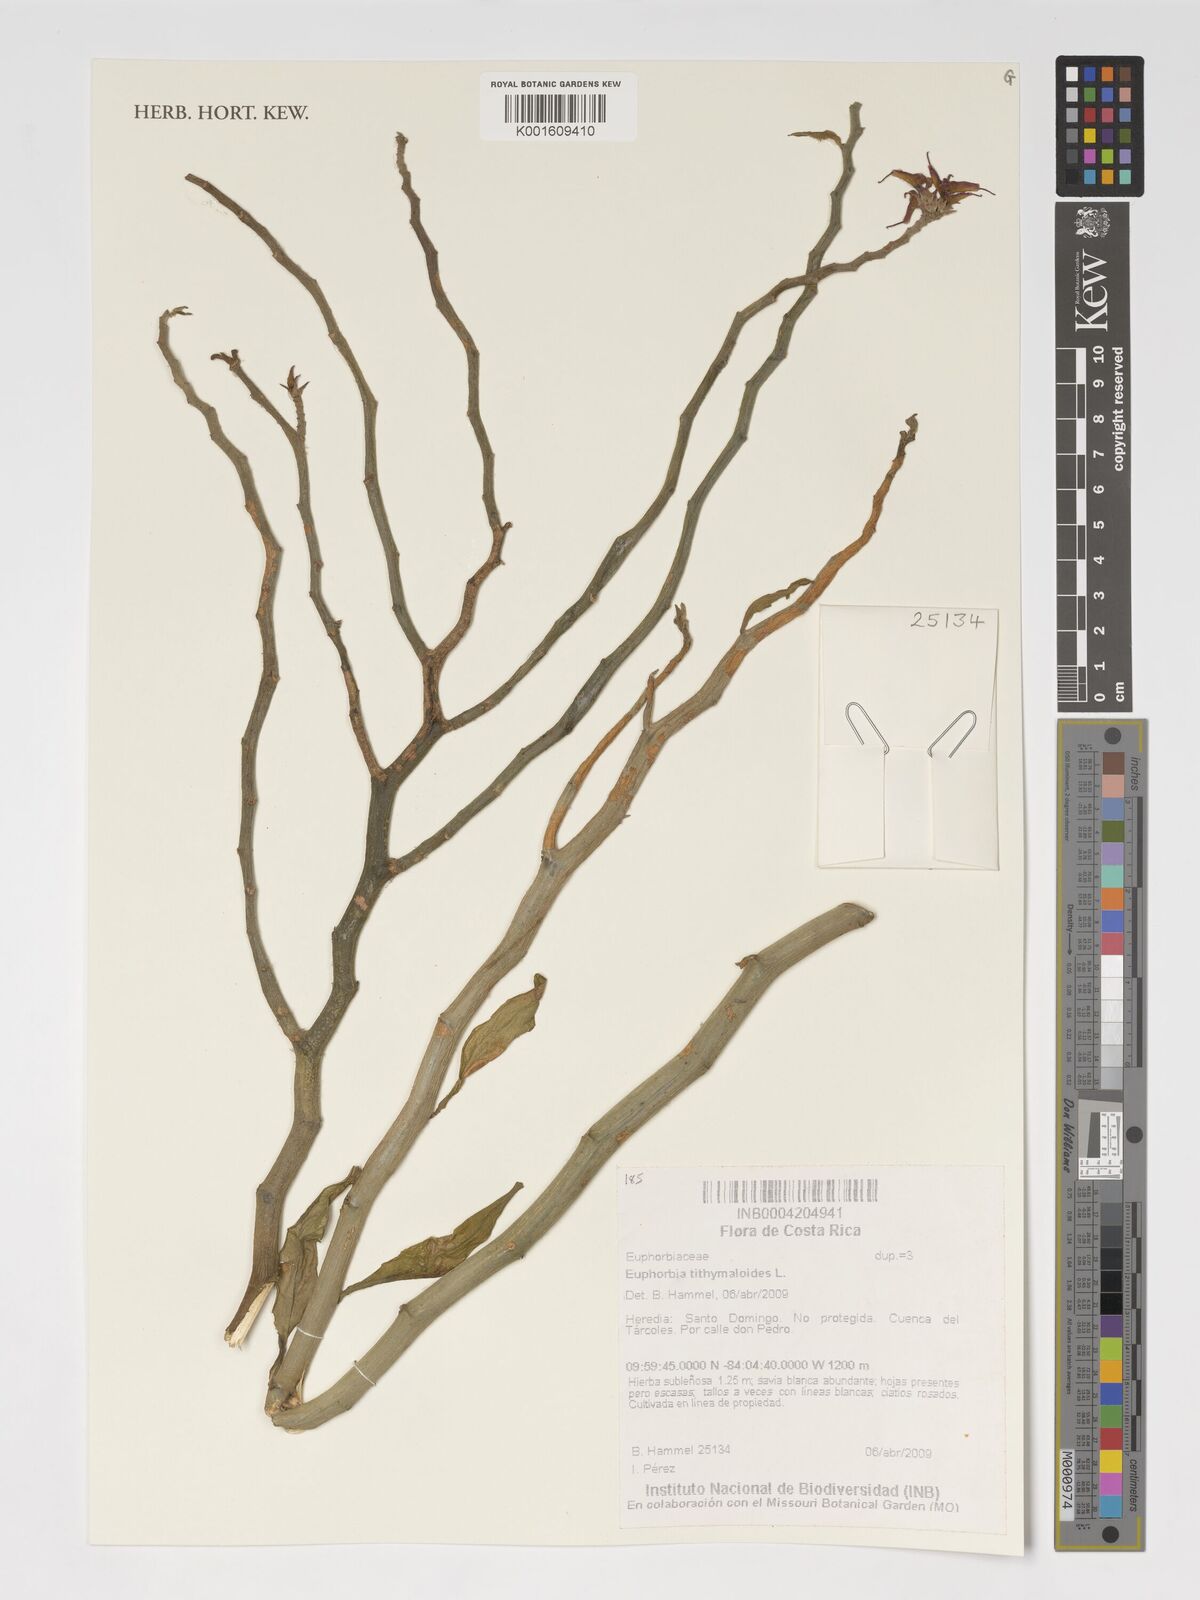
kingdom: Plantae
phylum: Tracheophyta
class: Magnoliopsida
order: Malpighiales
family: Euphorbiaceae
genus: Euphorbia
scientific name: Euphorbia tithymaloides
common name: Slipperplant
